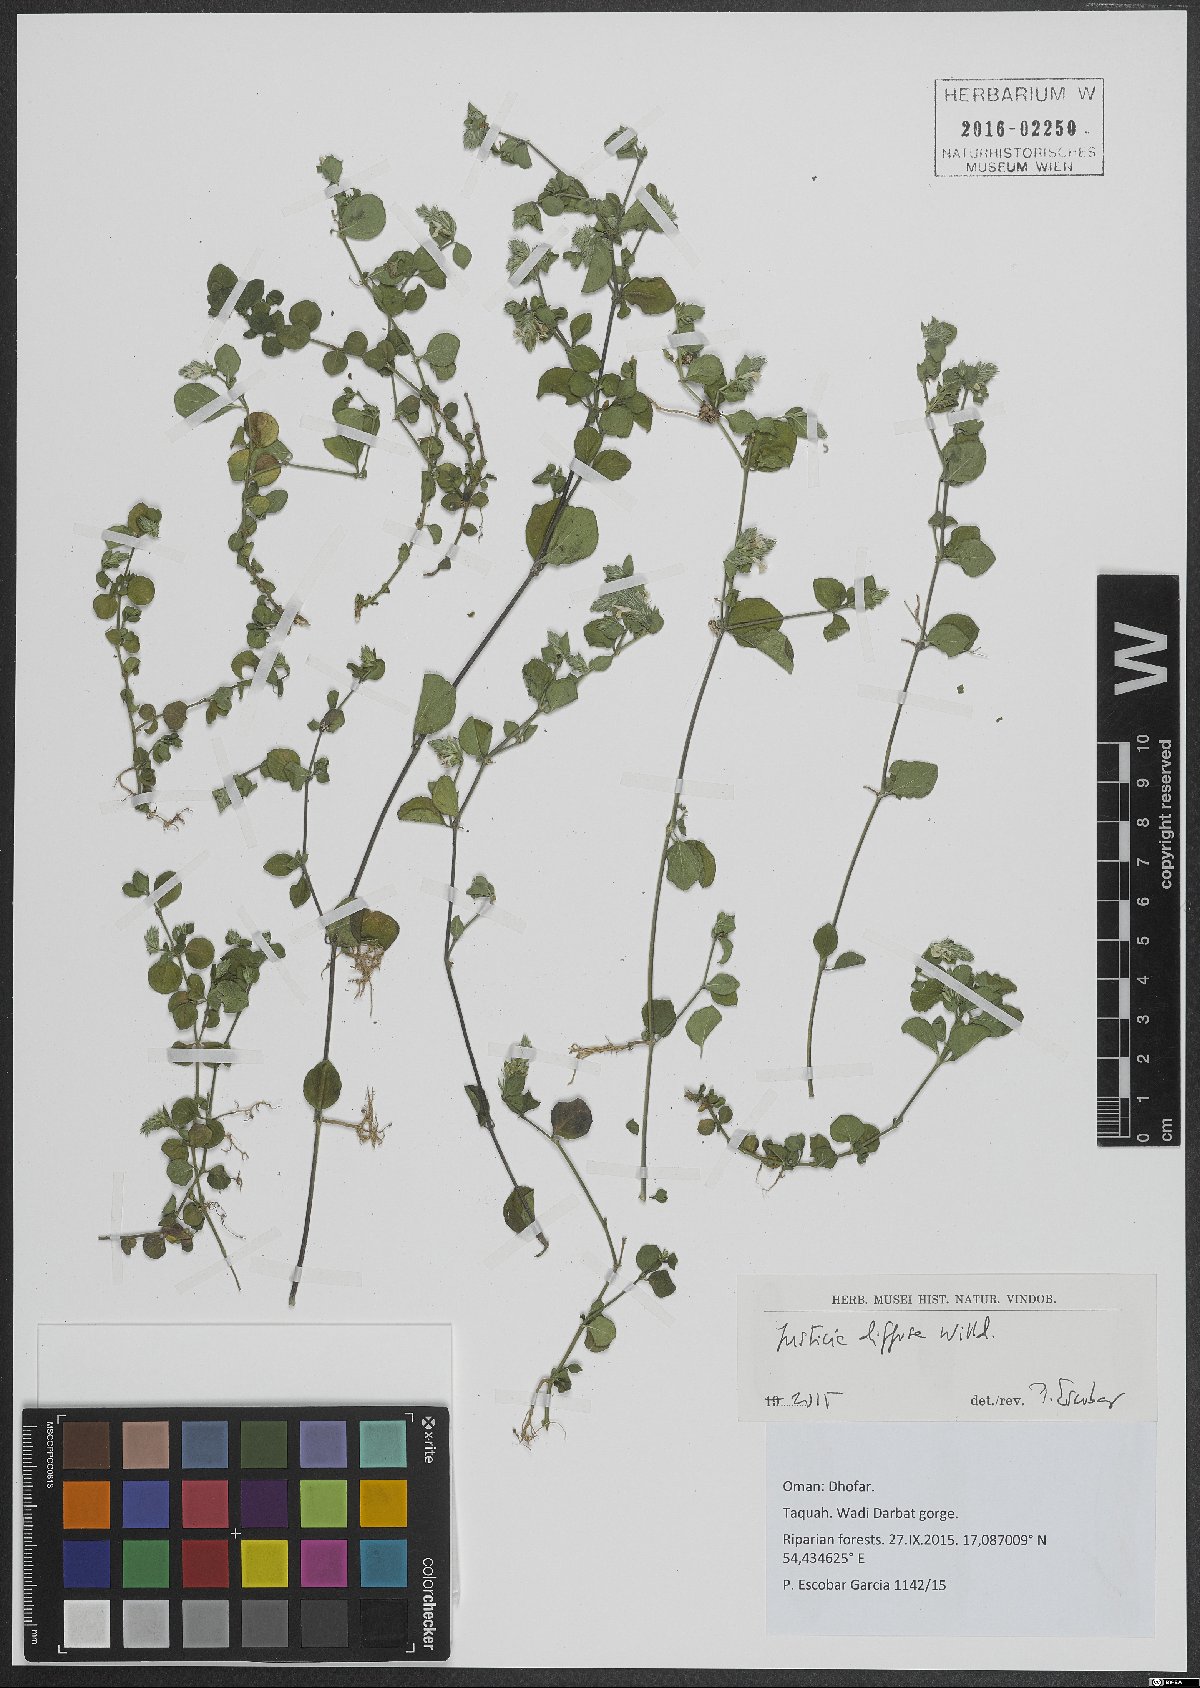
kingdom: Plantae
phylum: Tracheophyta
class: Magnoliopsida
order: Lamiales
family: Acanthaceae
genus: Rostellularia
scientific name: Rostellularia diffusa
